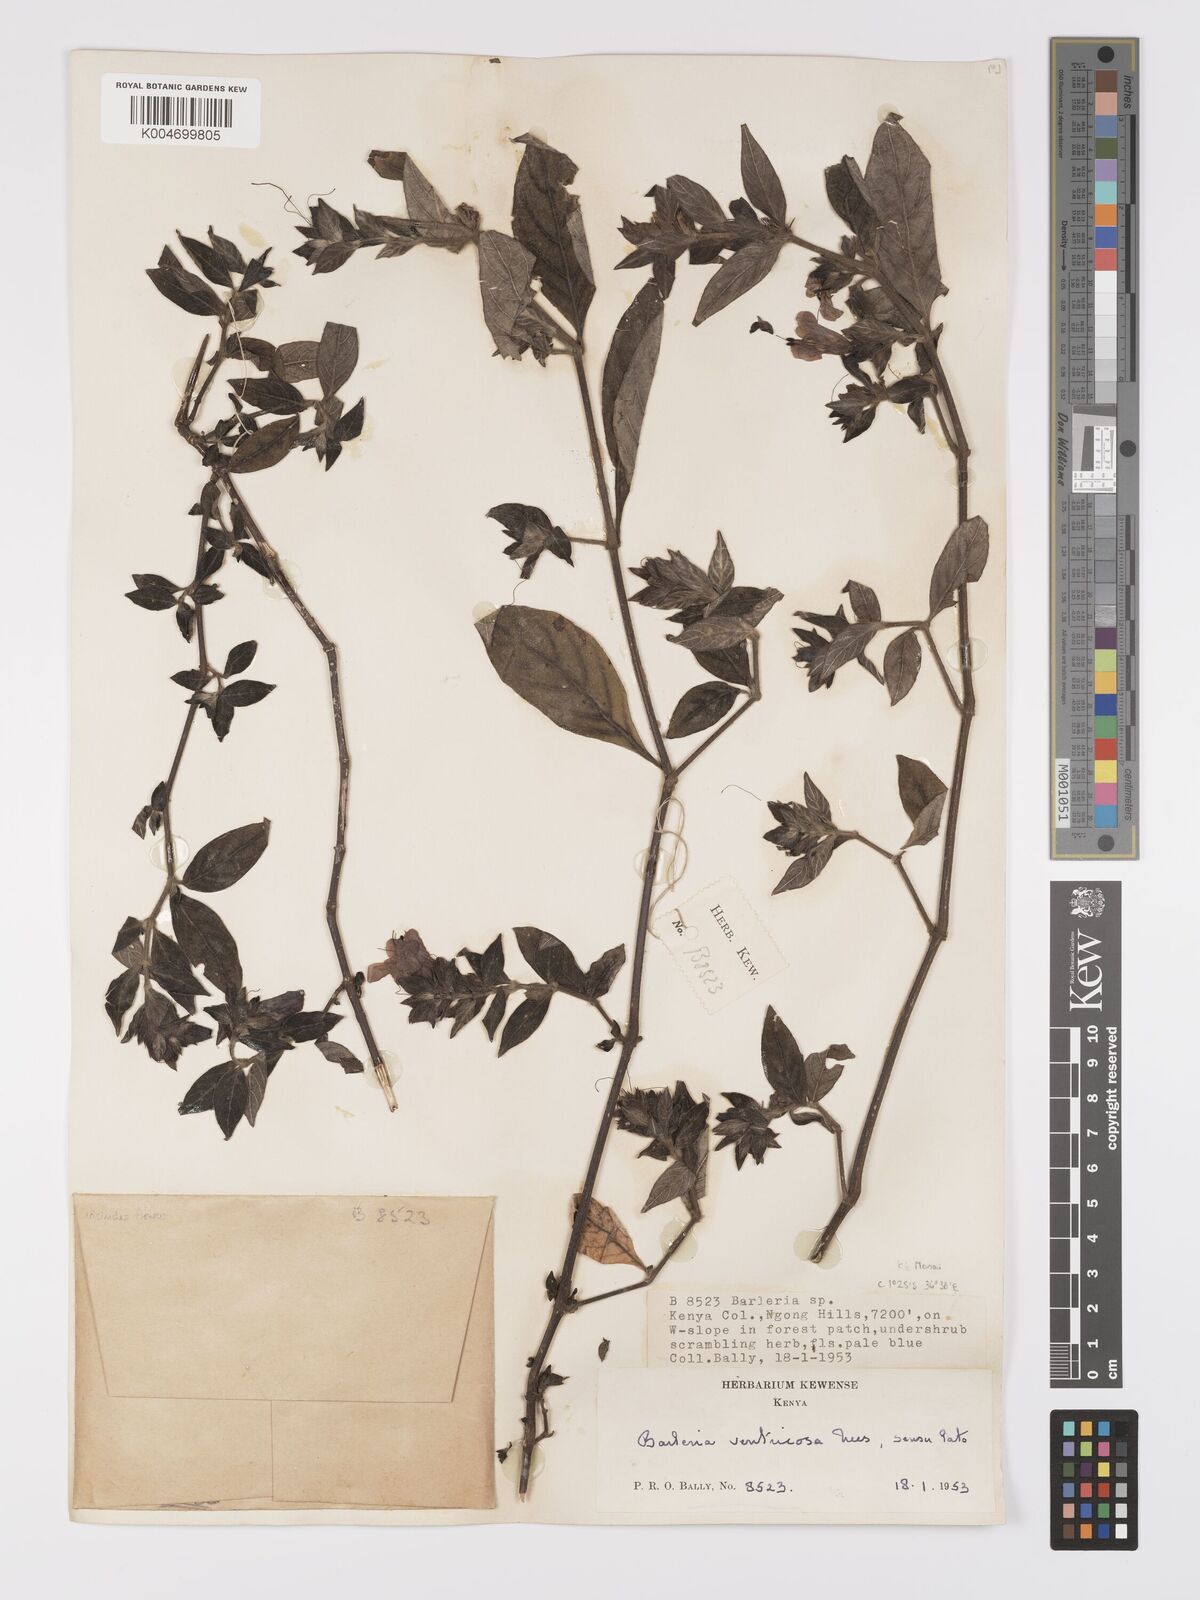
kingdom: Plantae
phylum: Tracheophyta
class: Magnoliopsida
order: Lamiales
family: Acanthaceae
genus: Barleria
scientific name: Barleria ventricosa
